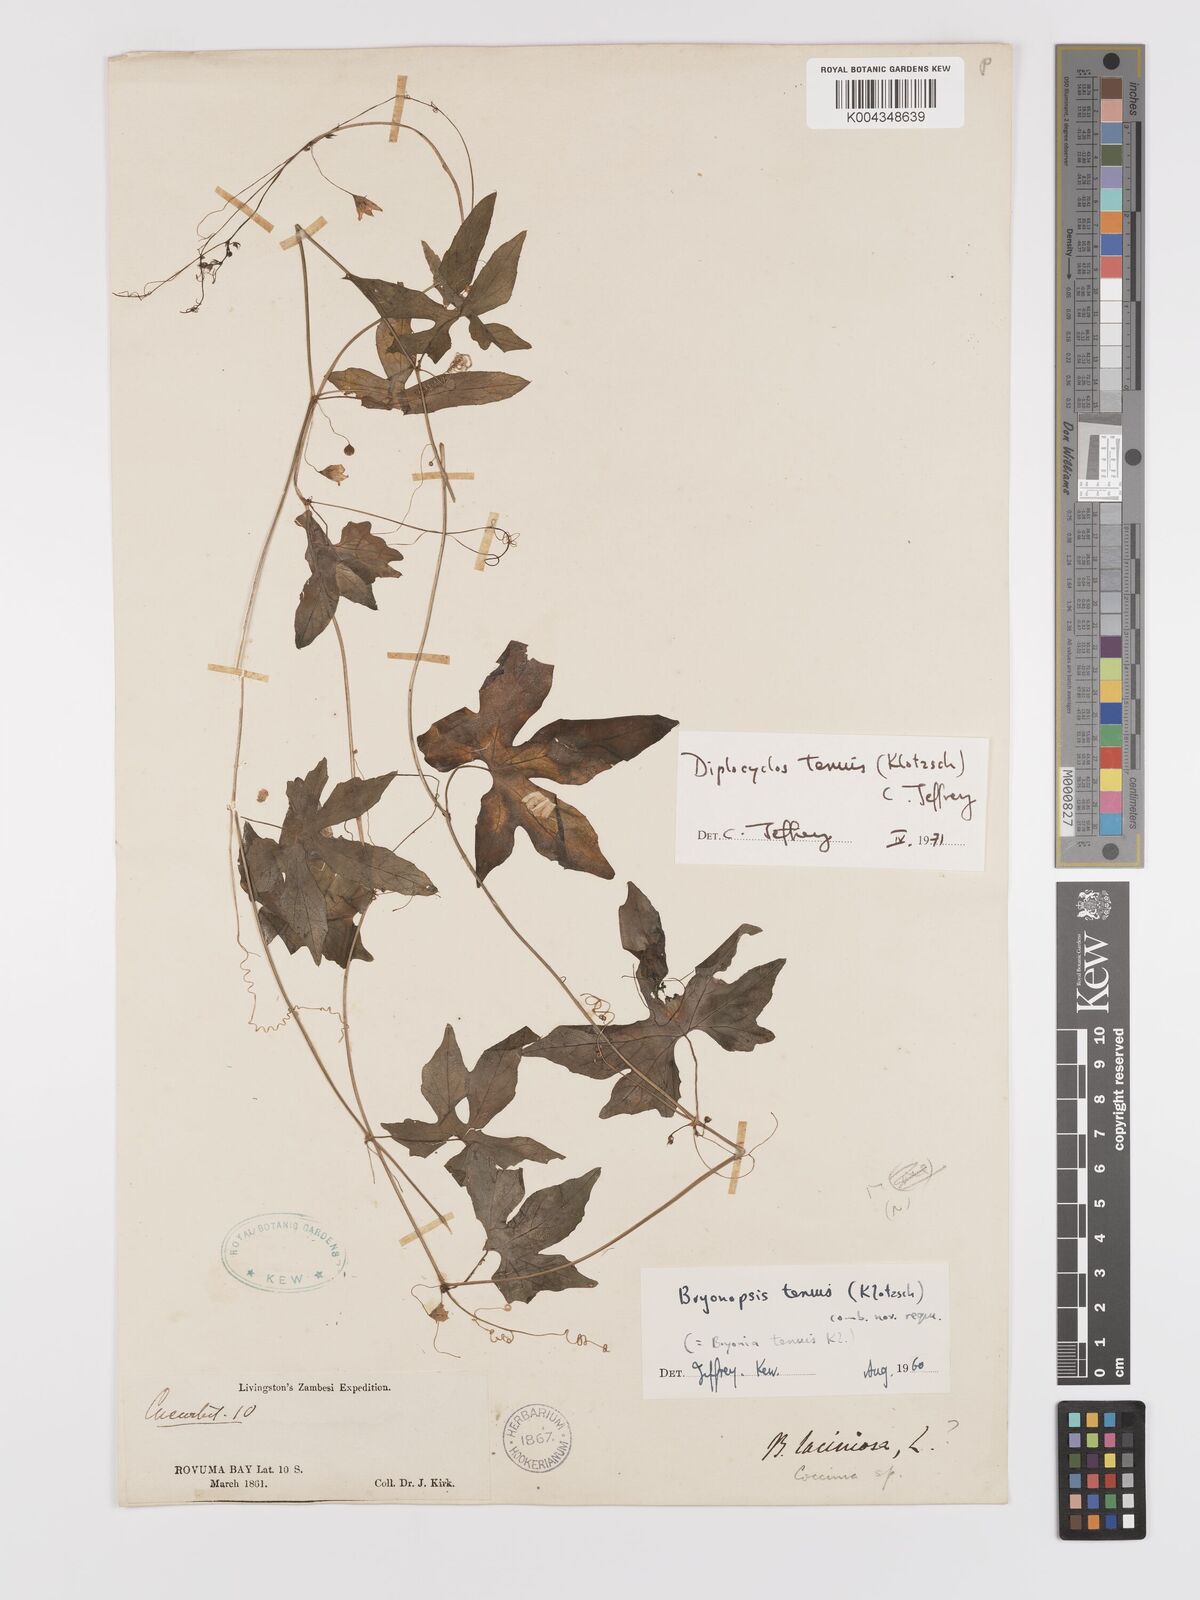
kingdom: Plantae
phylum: Tracheophyta
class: Magnoliopsida
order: Cucurbitales
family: Cucurbitaceae
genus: Diplocyclos
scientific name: Diplocyclos tenuis
